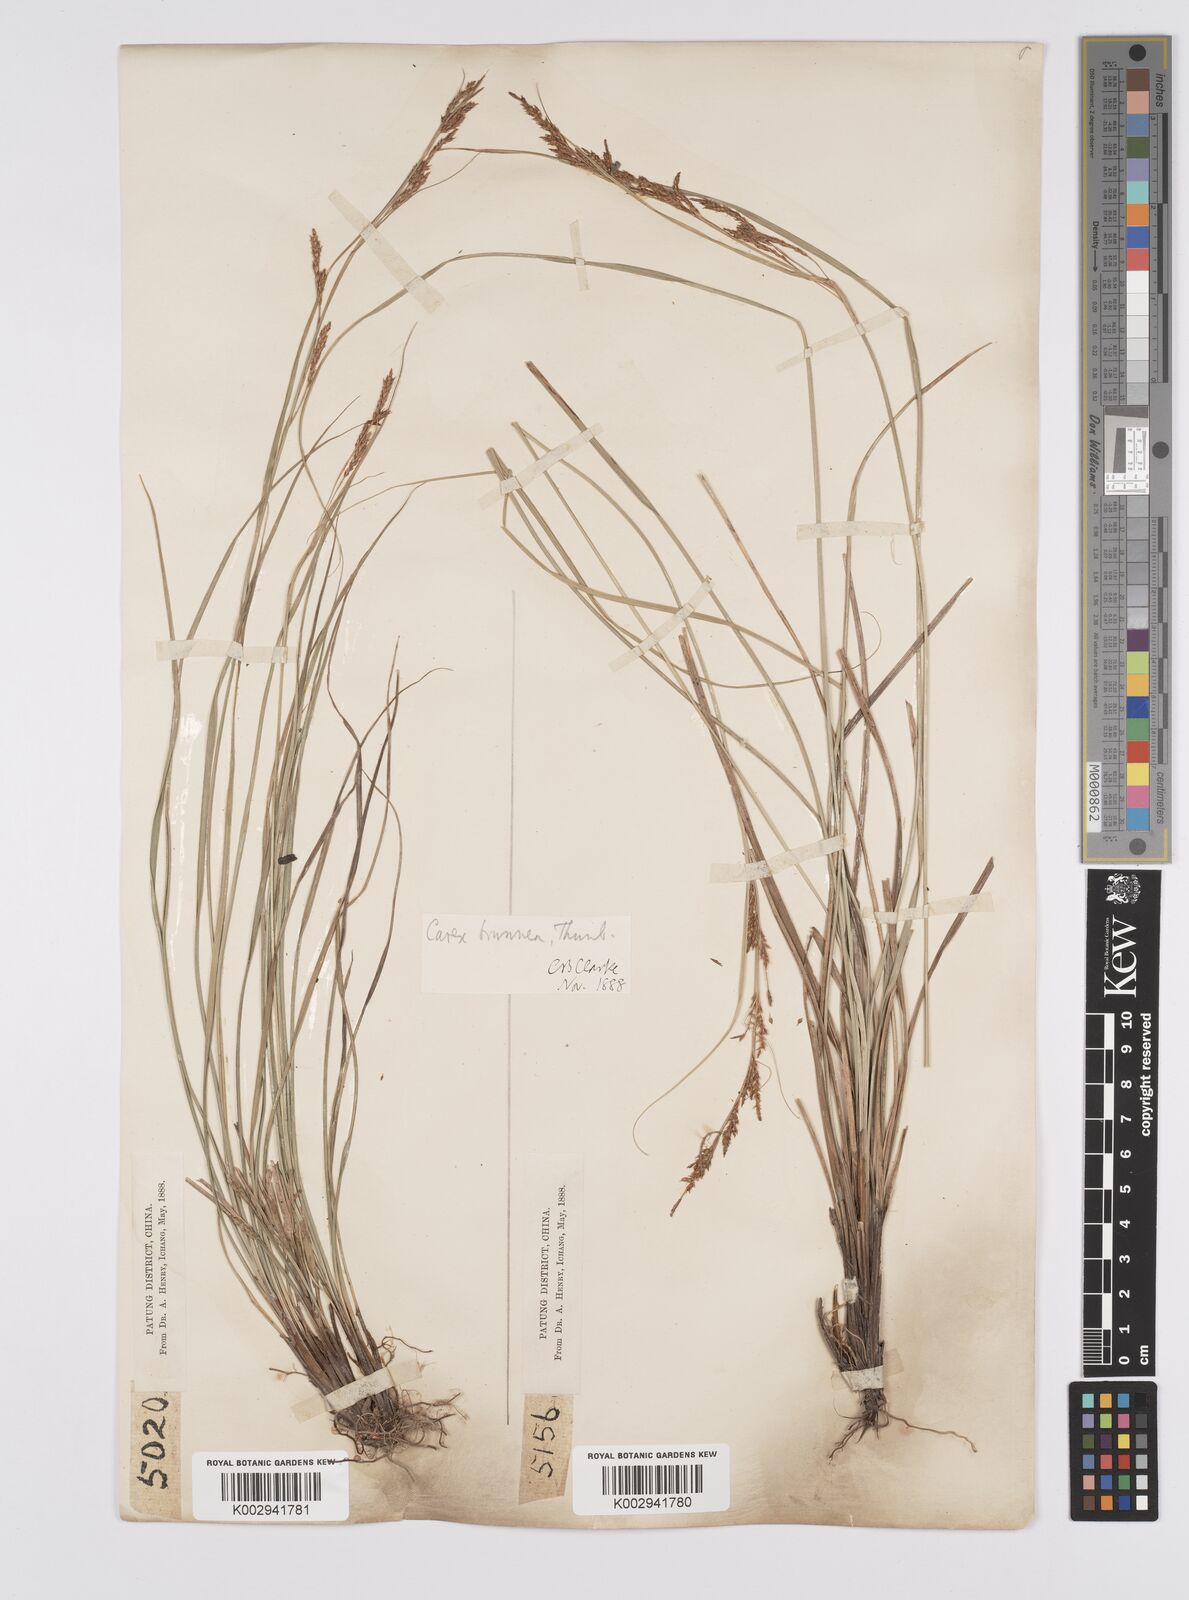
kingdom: Plantae
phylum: Tracheophyta
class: Liliopsida
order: Poales
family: Cyperaceae
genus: Carex
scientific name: Carex brunnea
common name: Greater brown sedge
